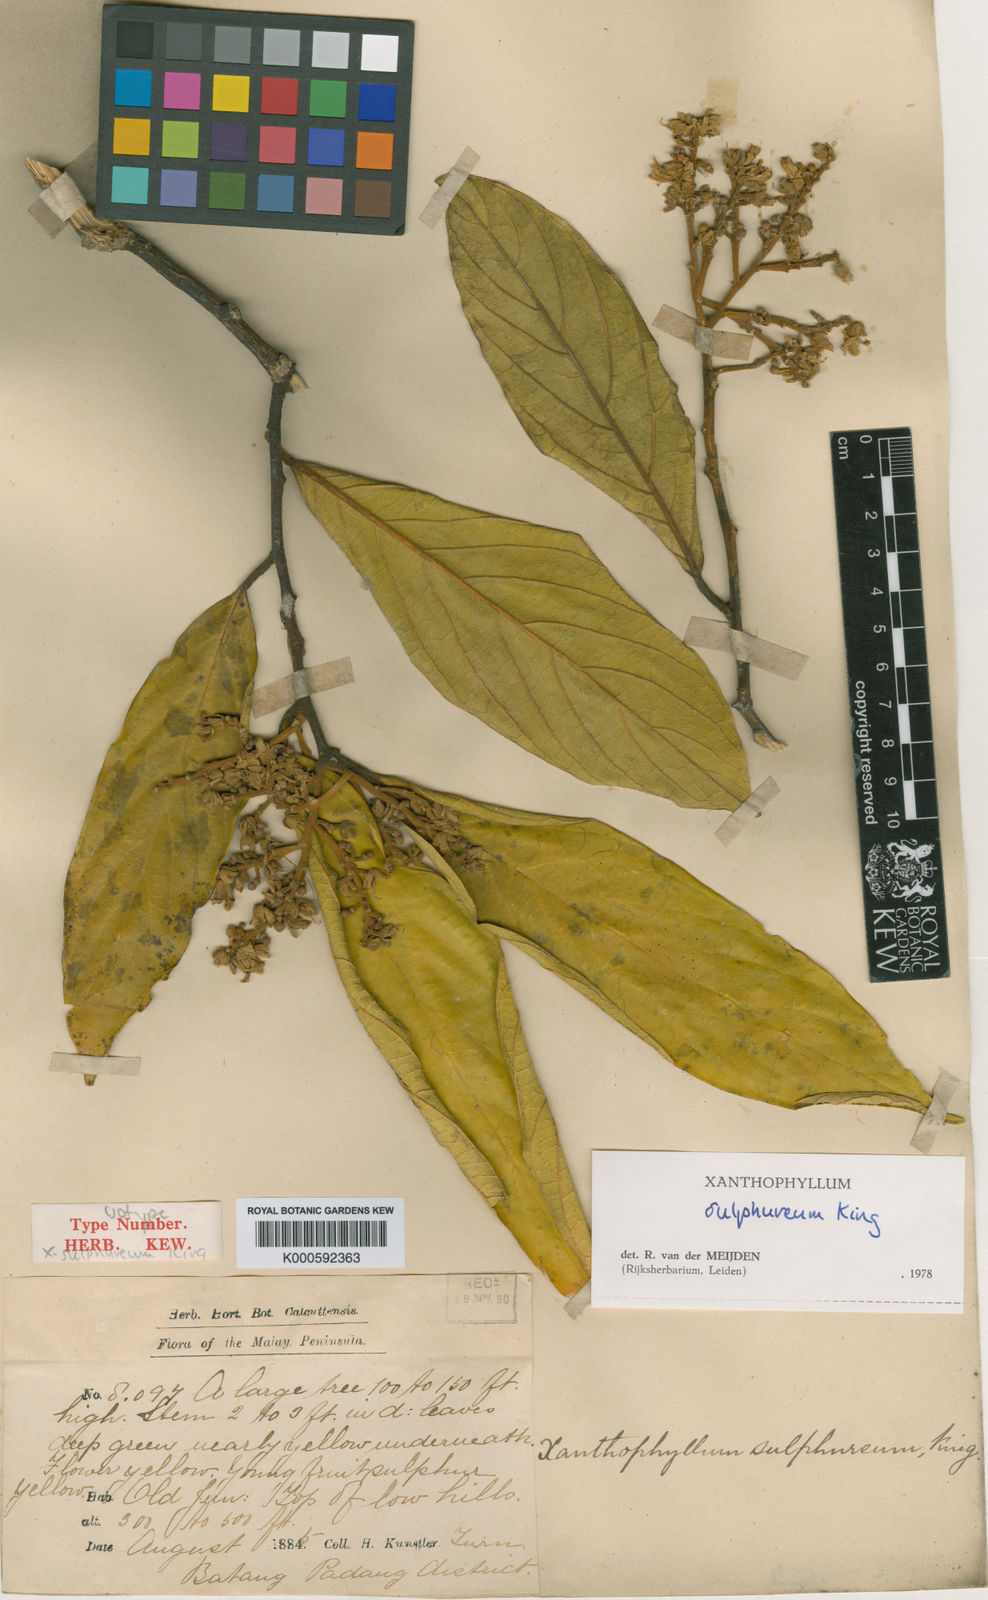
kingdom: Plantae
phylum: Tracheophyta
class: Magnoliopsida
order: Fabales
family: Polygalaceae
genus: Xanthophyllum
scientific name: Xanthophyllum sulphureum
